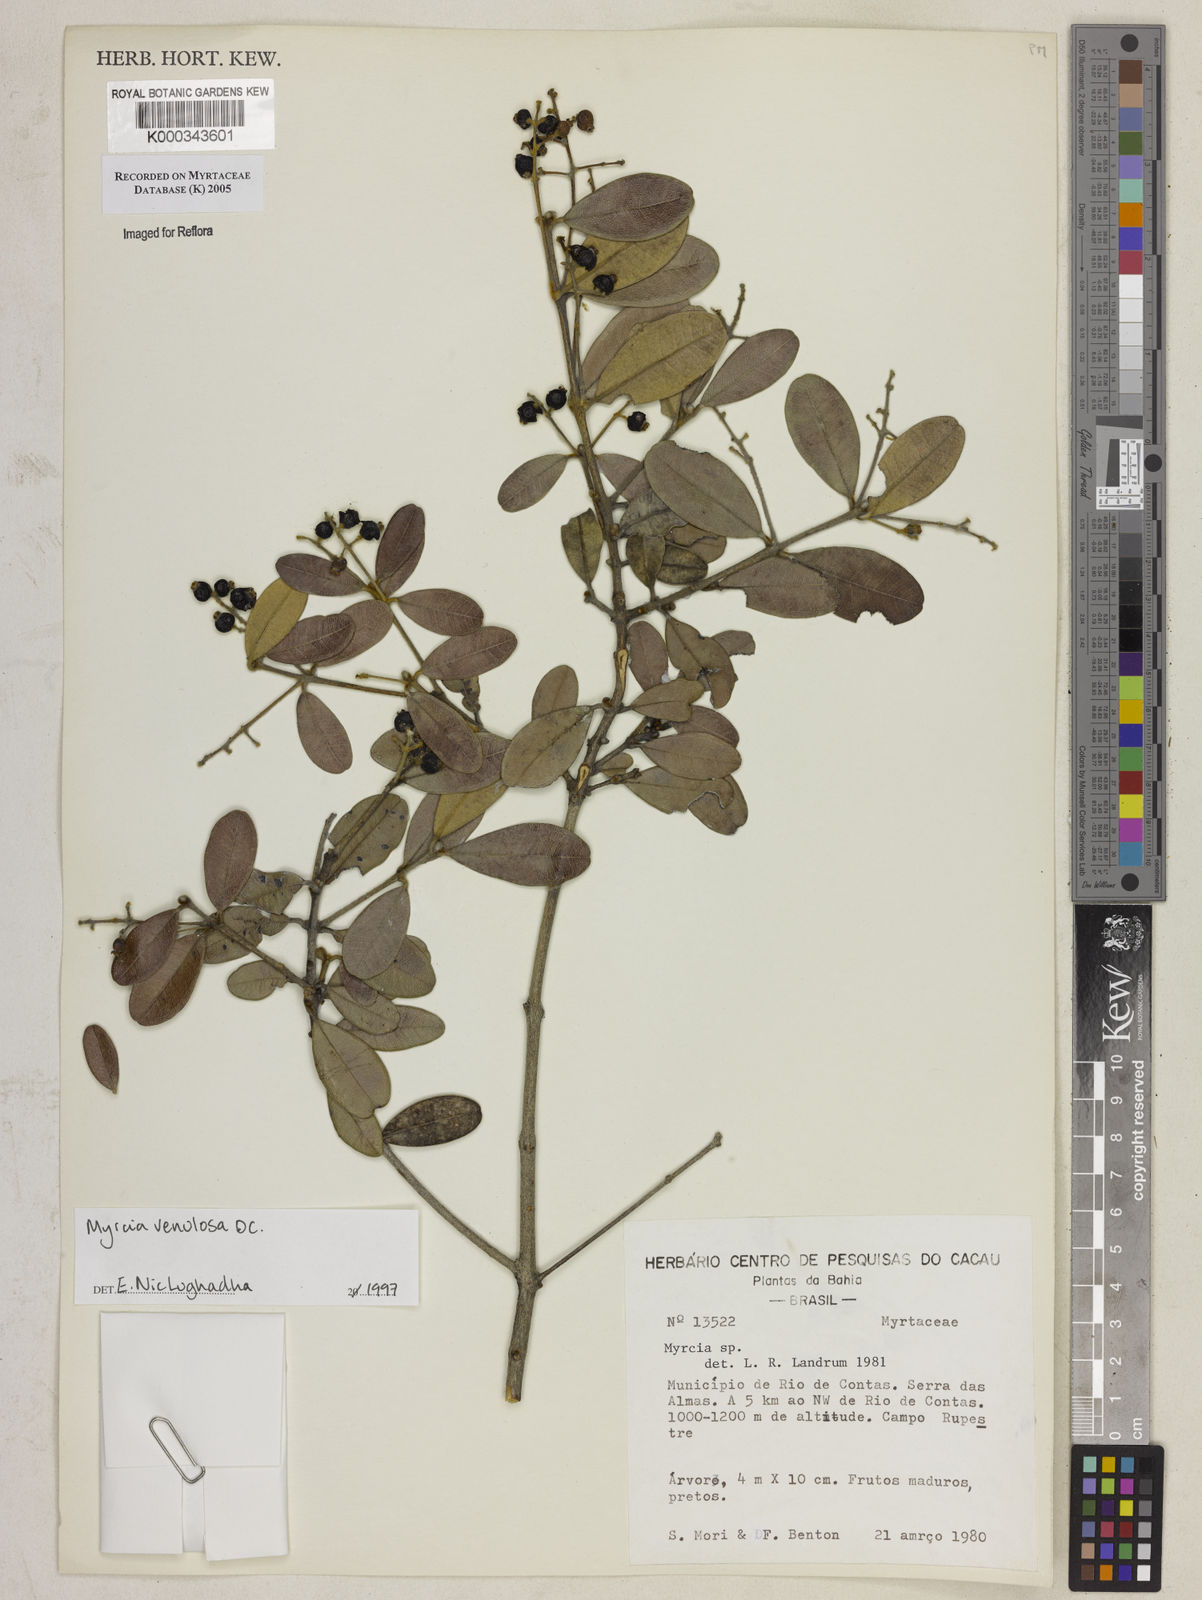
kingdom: Plantae
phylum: Tracheophyta
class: Magnoliopsida
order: Myrtales
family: Myrtaceae
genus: Myrcia
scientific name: Myrcia venulosa
